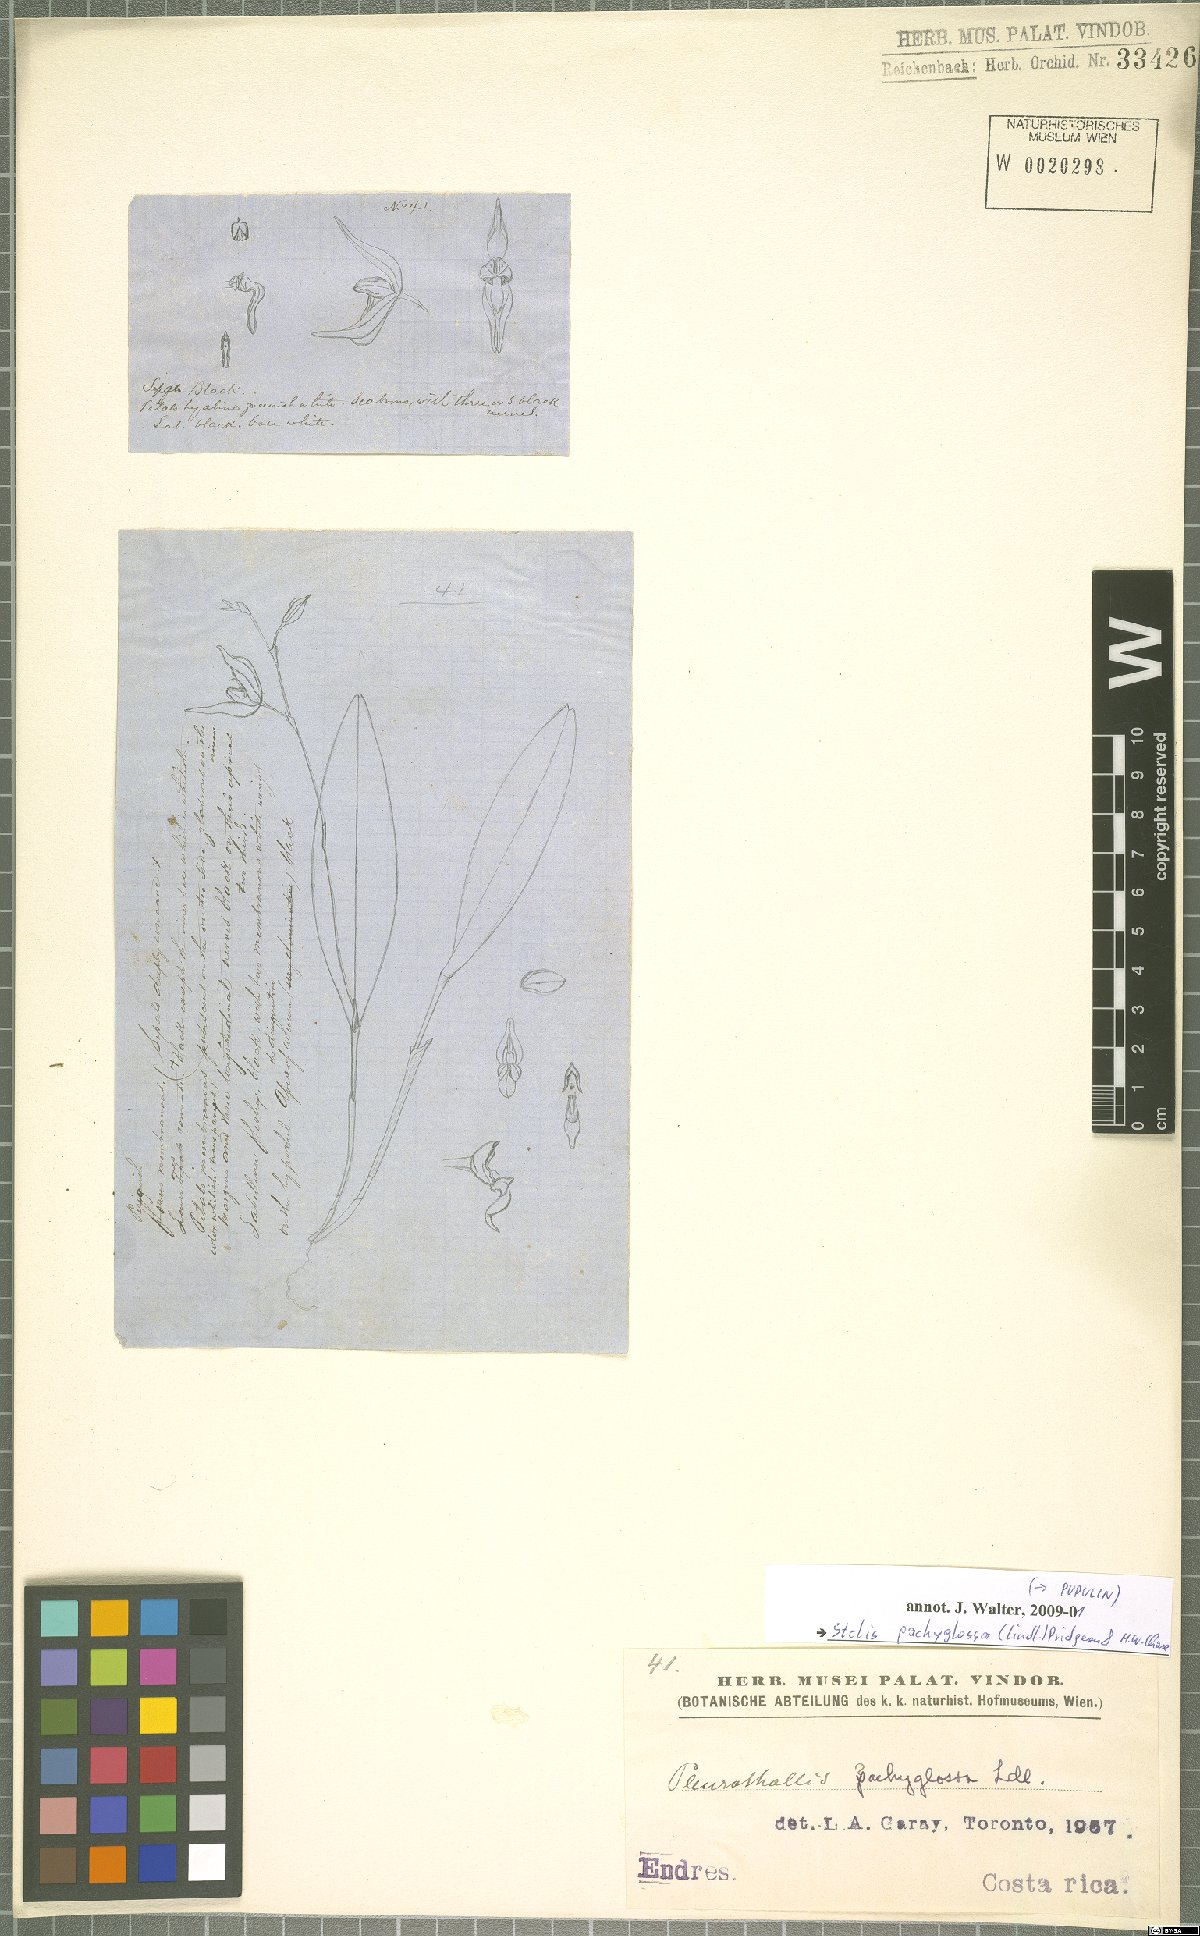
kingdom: Plantae
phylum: Tracheophyta
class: Liliopsida
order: Asparagales
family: Orchidaceae
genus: Stelis
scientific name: Stelis pachyglossa
